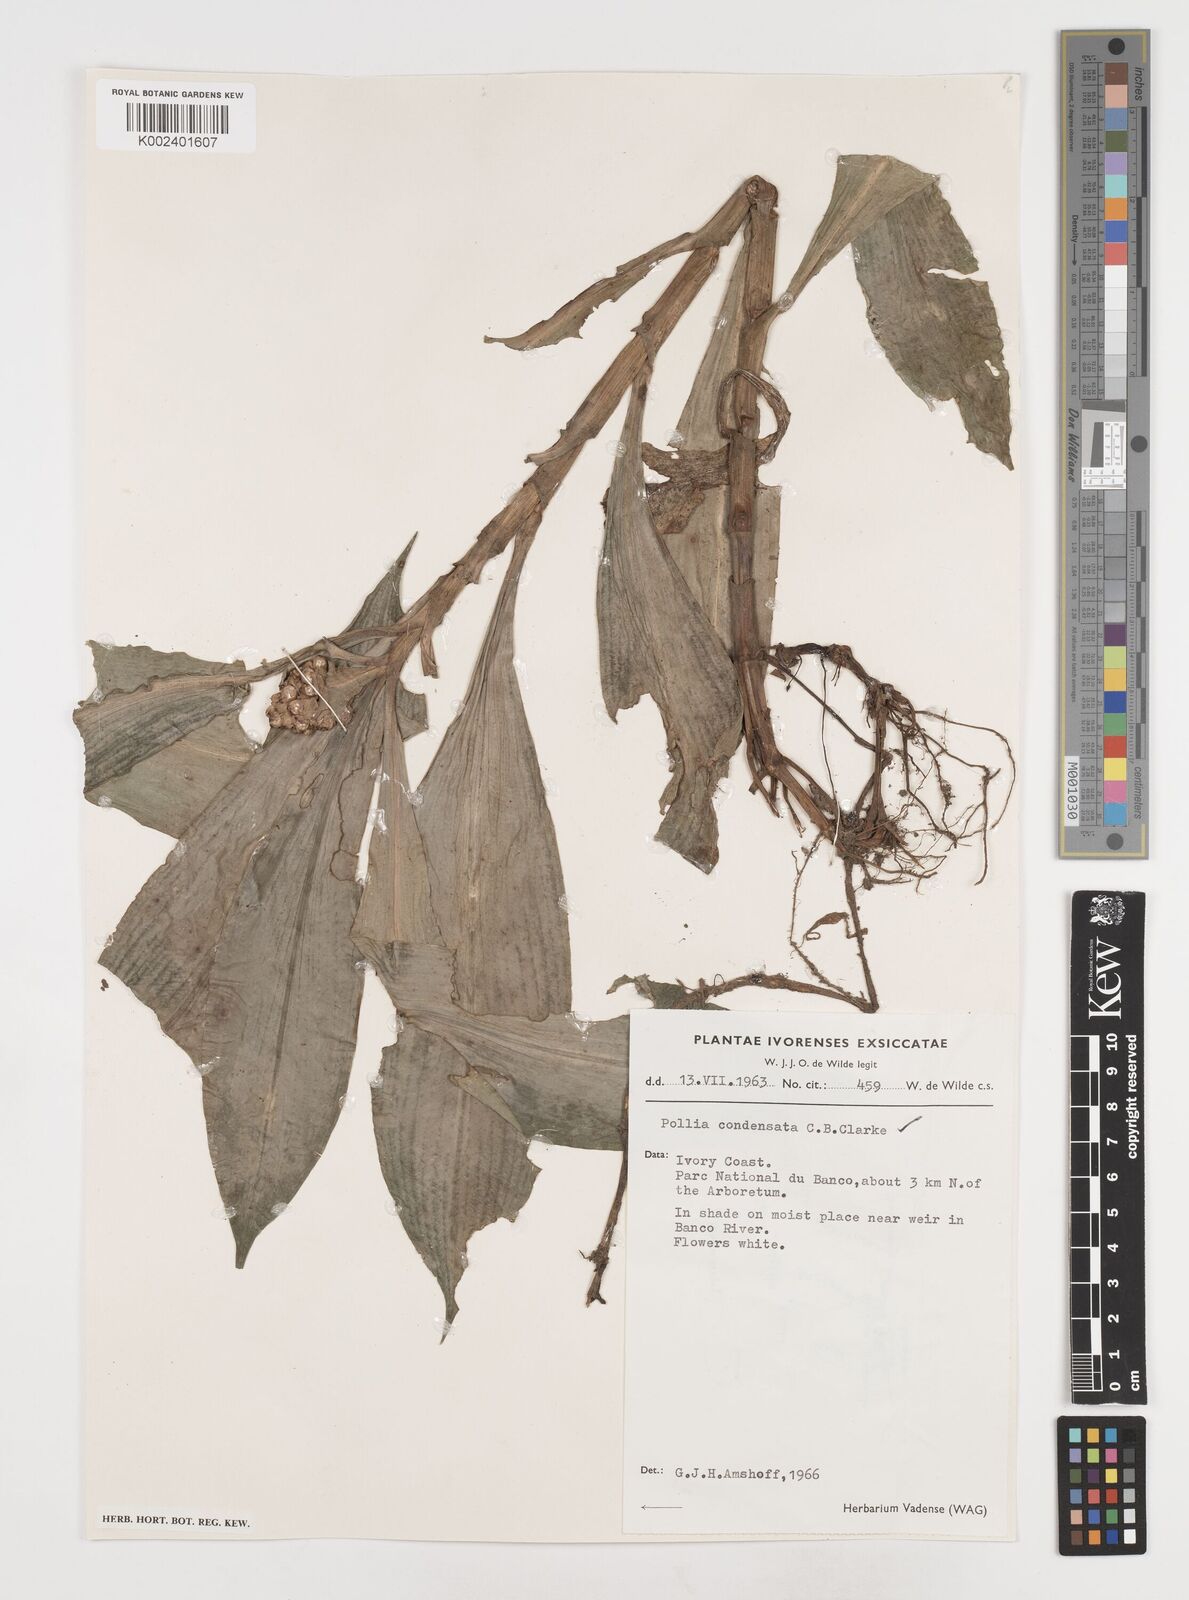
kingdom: Plantae
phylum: Tracheophyta
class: Liliopsida
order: Commelinales
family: Commelinaceae
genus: Pollia
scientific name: Pollia condensata
